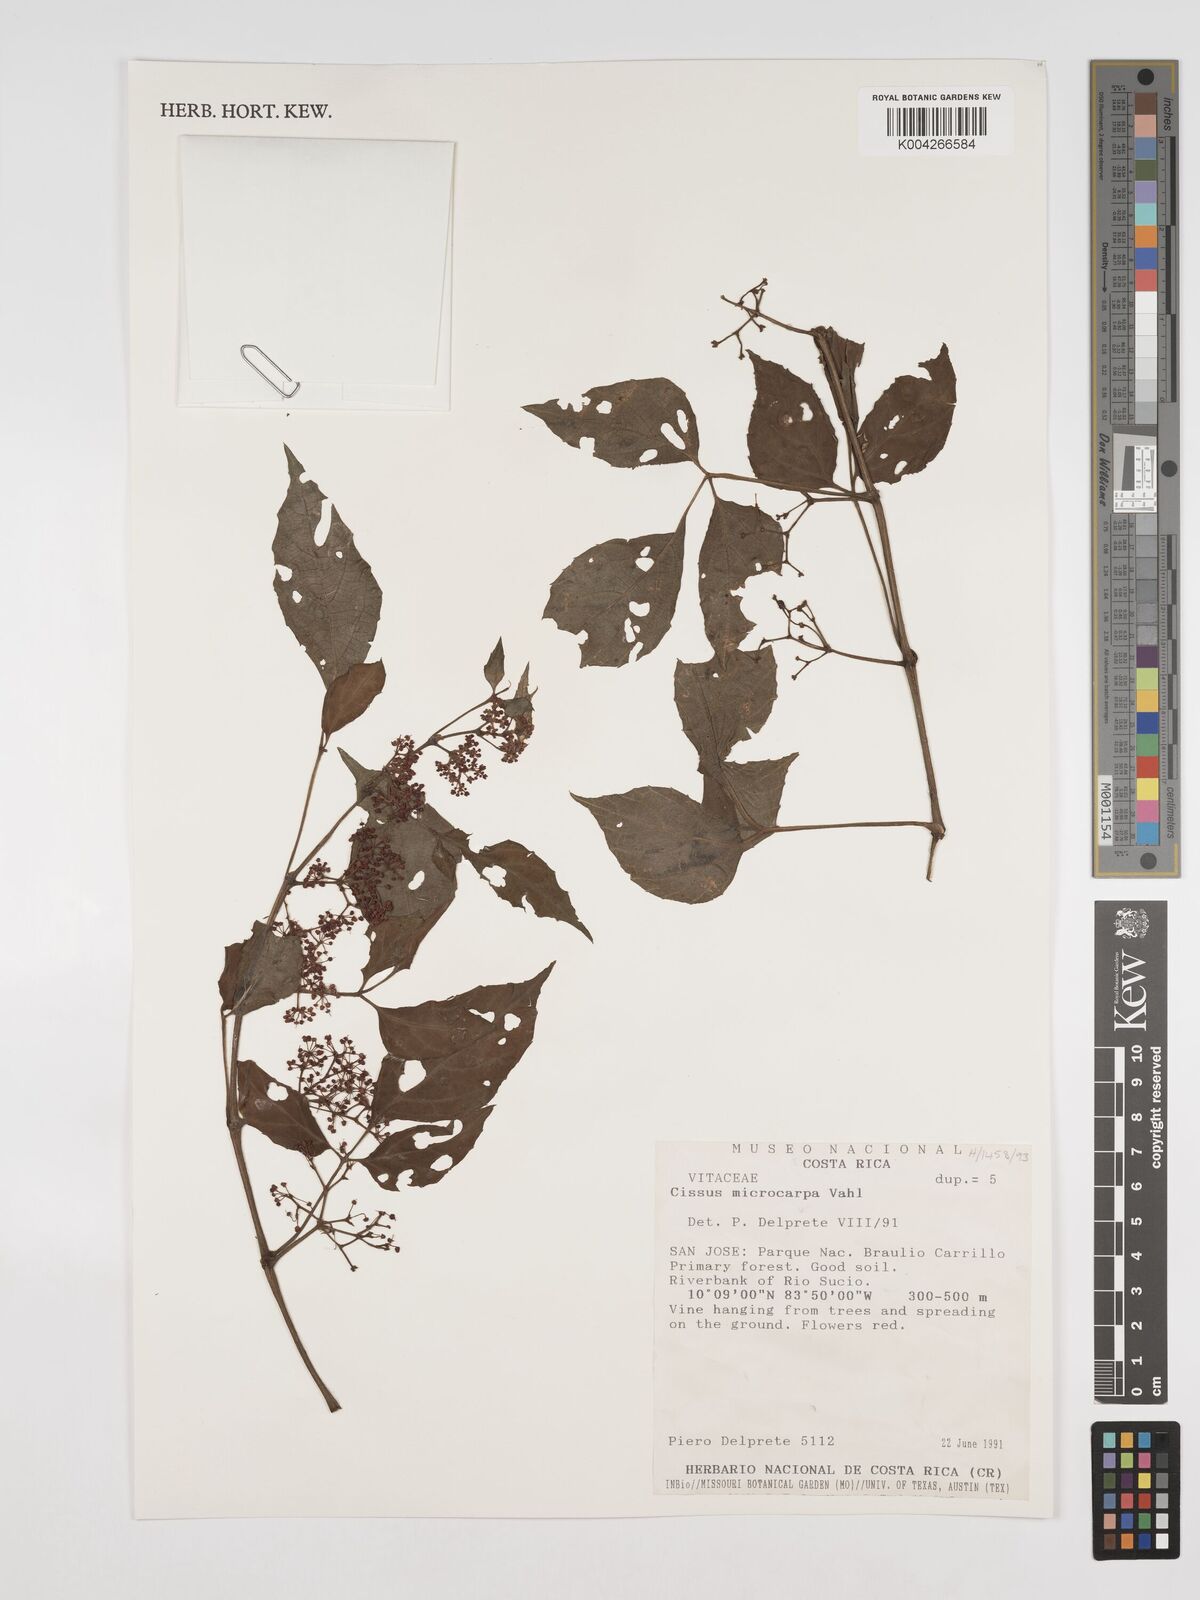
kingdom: Plantae
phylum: Tracheophyta
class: Magnoliopsida
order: Vitales
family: Vitaceae
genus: Cissus
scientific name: Cissus microcarpa
